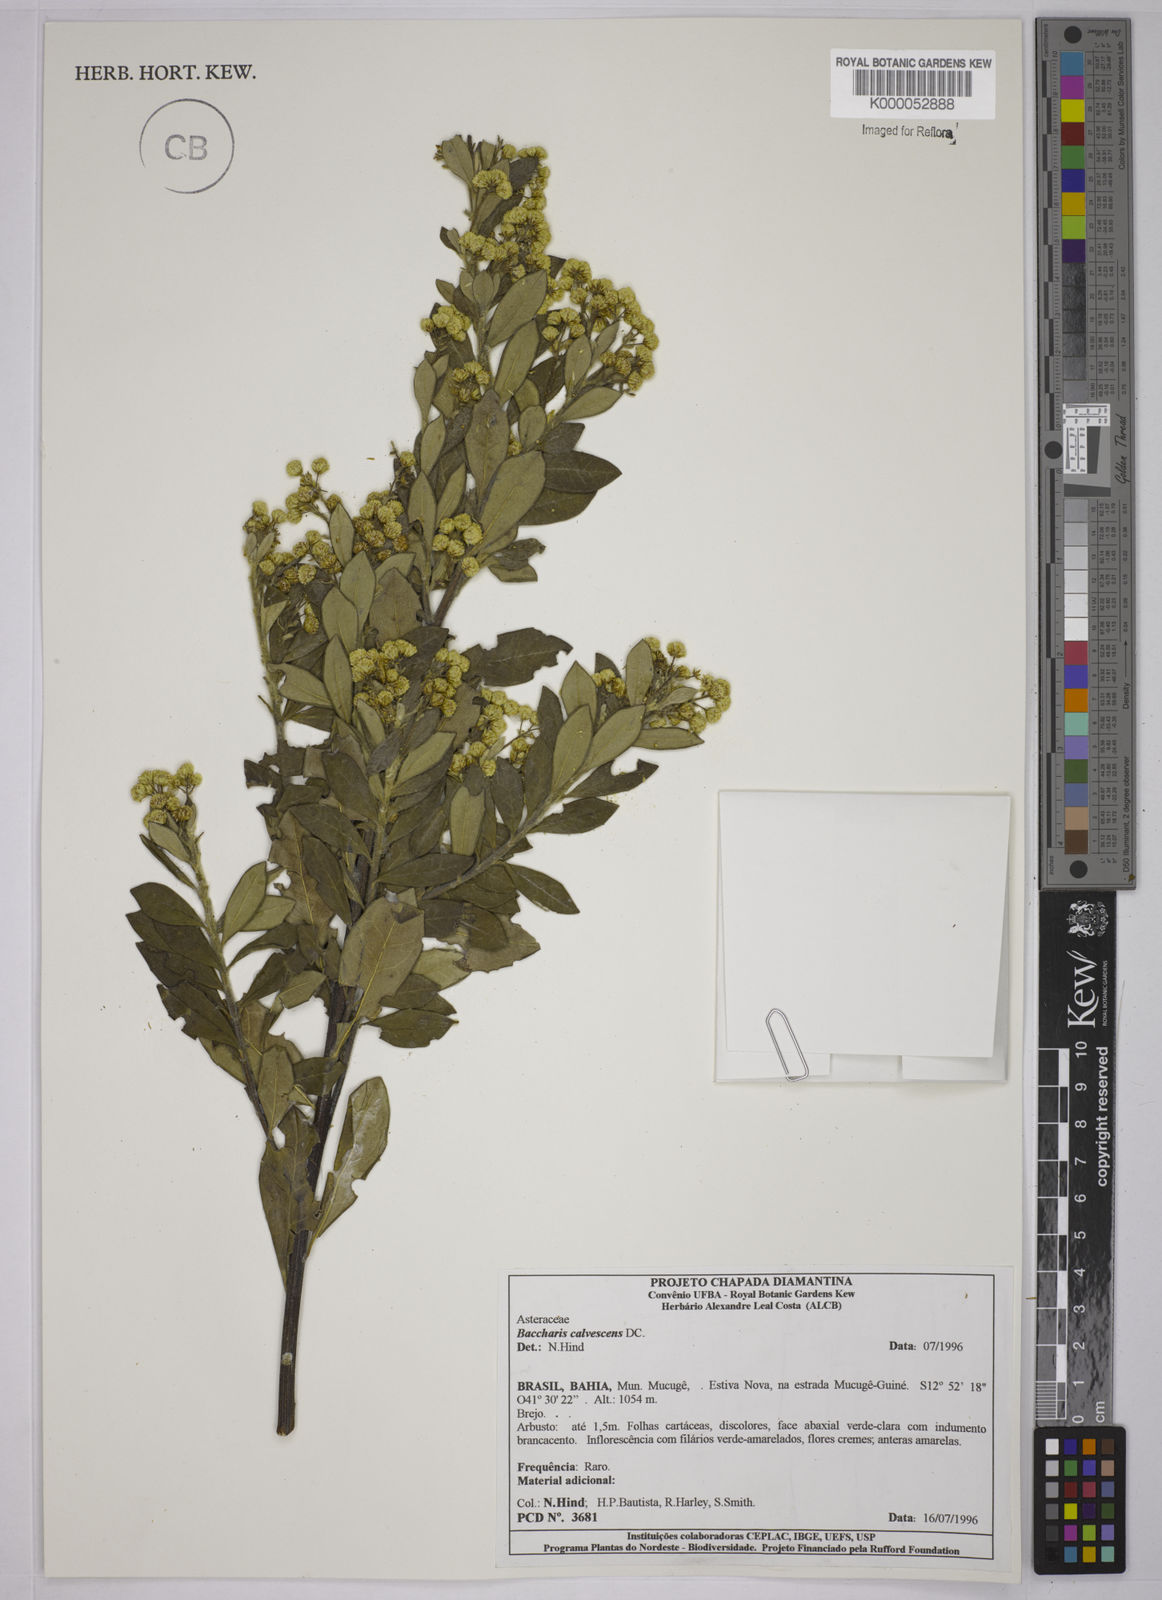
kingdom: Plantae
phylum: Tracheophyta
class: Magnoliopsida
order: Asterales
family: Asteraceae
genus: Baccharis
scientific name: Baccharis calvescens
